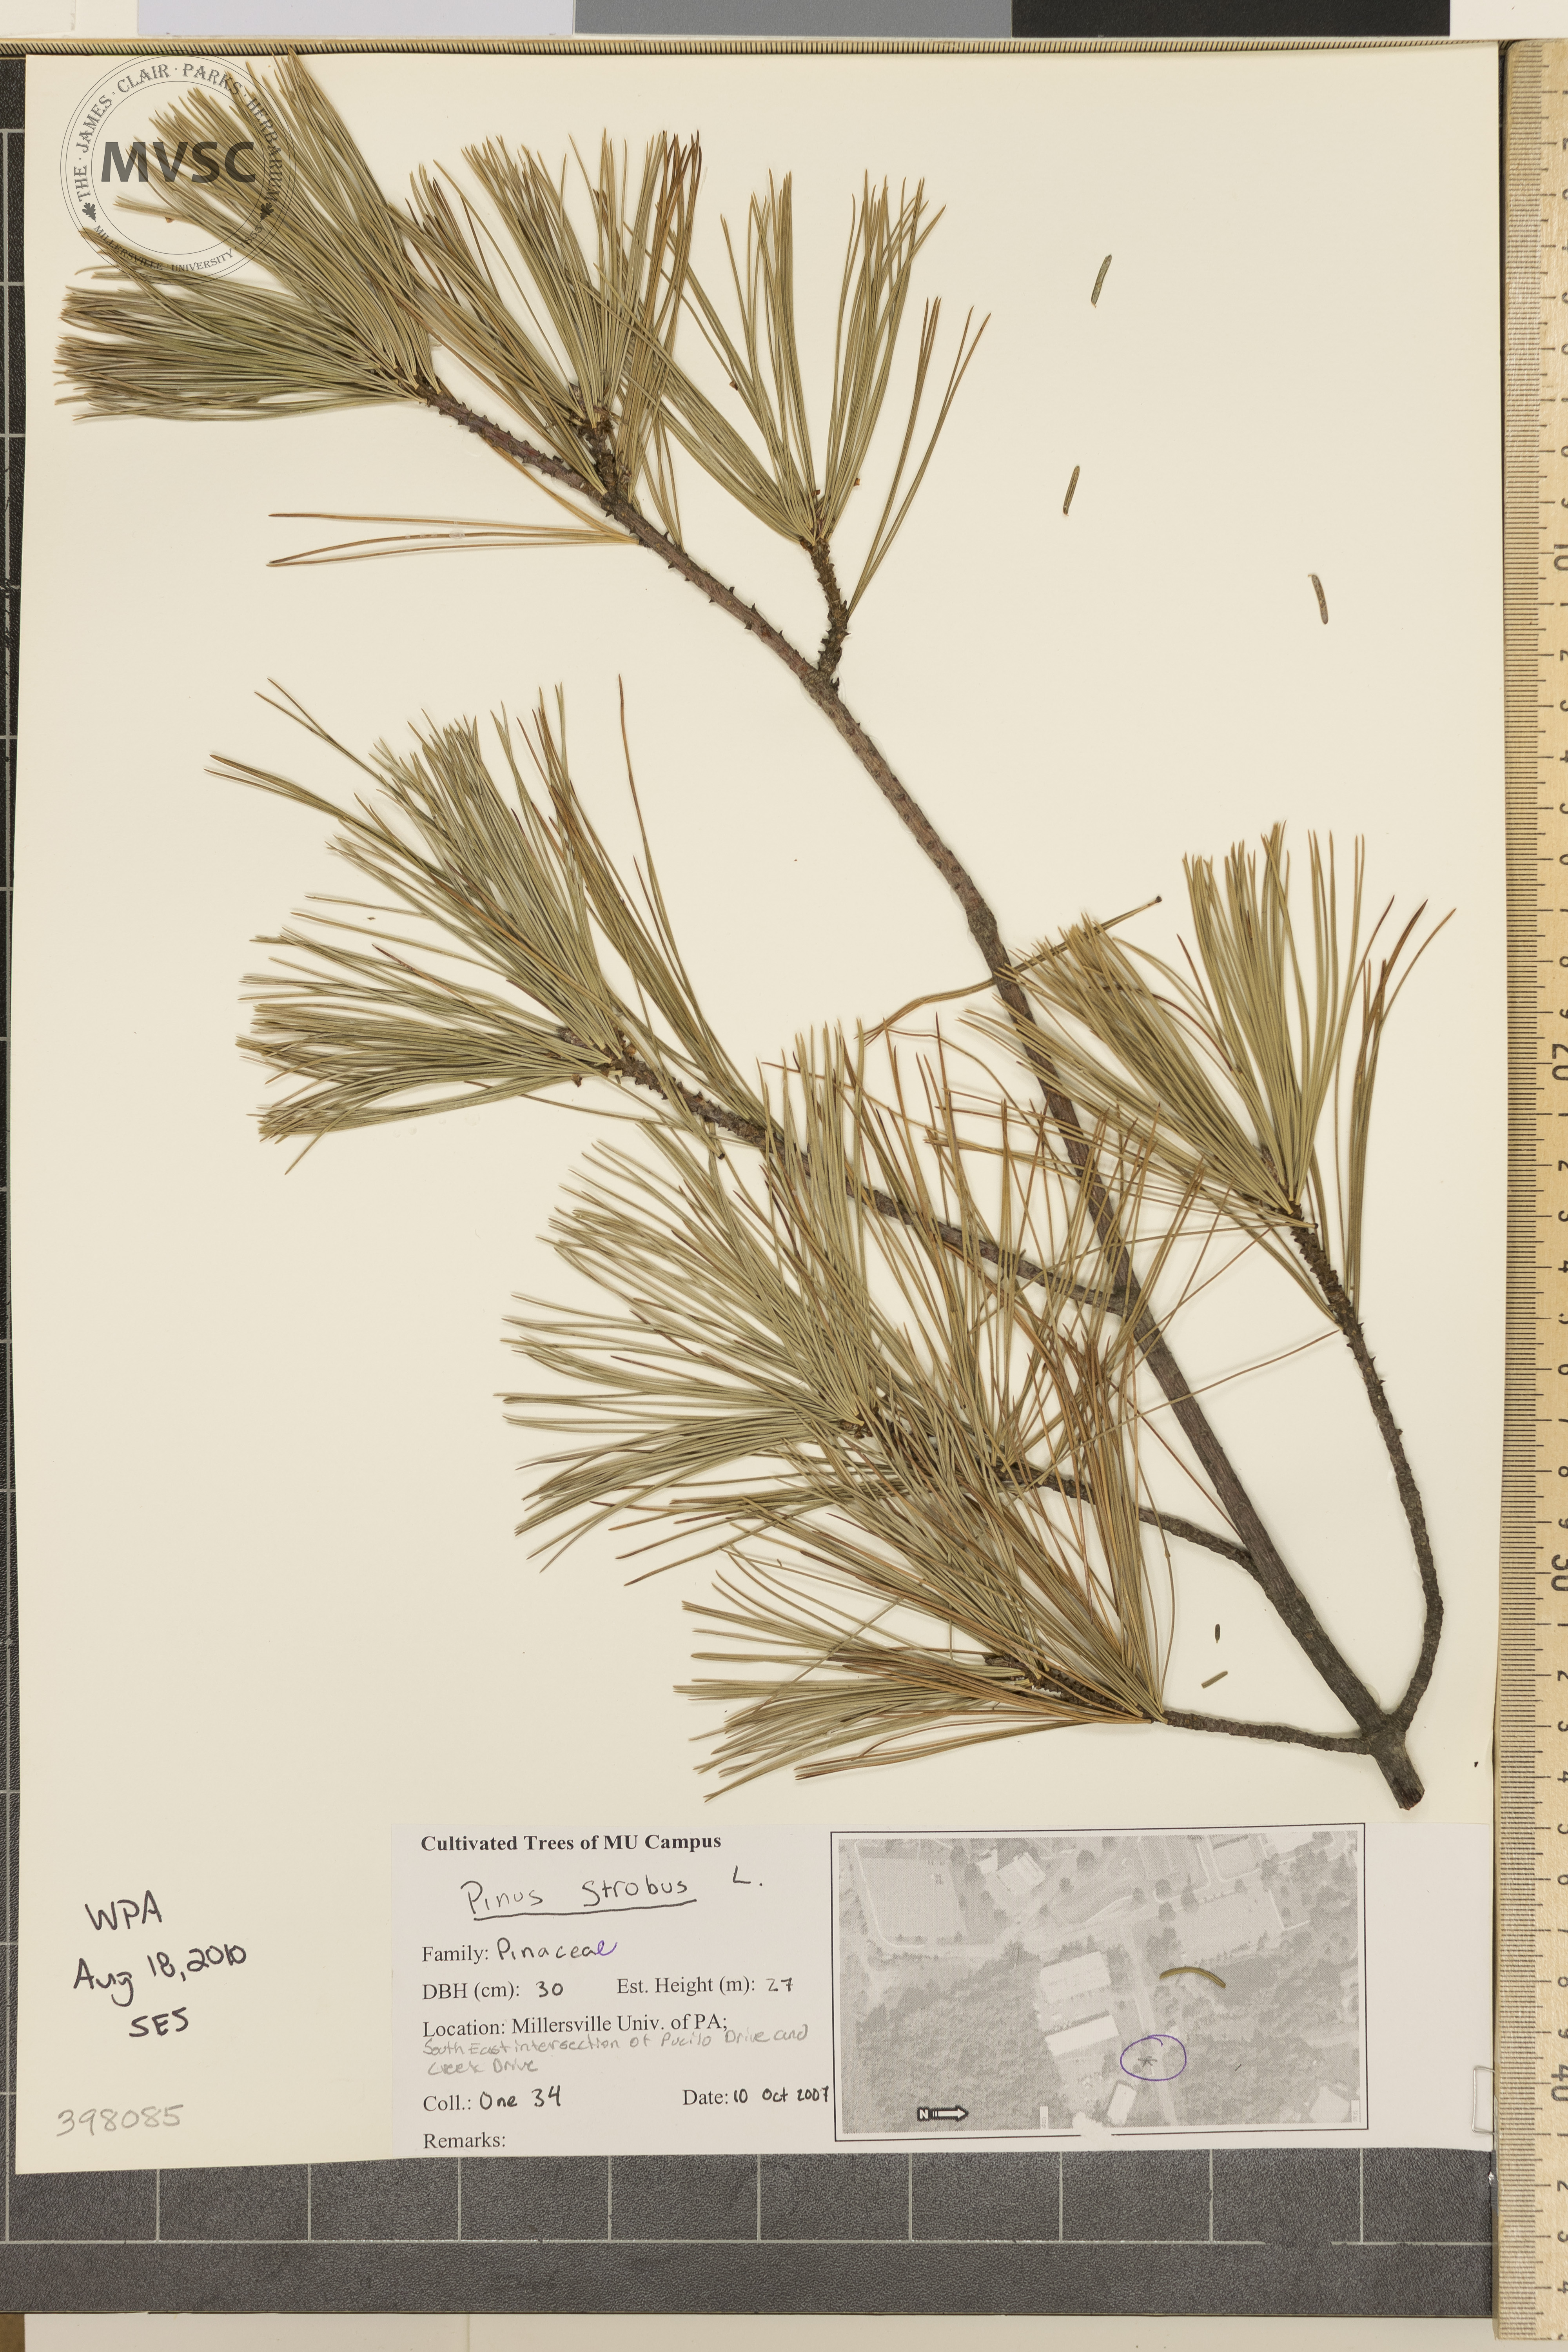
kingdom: Plantae
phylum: Tracheophyta
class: Pinopsida
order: Pinales
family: Pinaceae
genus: Pinus
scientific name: Pinus strobus
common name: Eastern white pine
